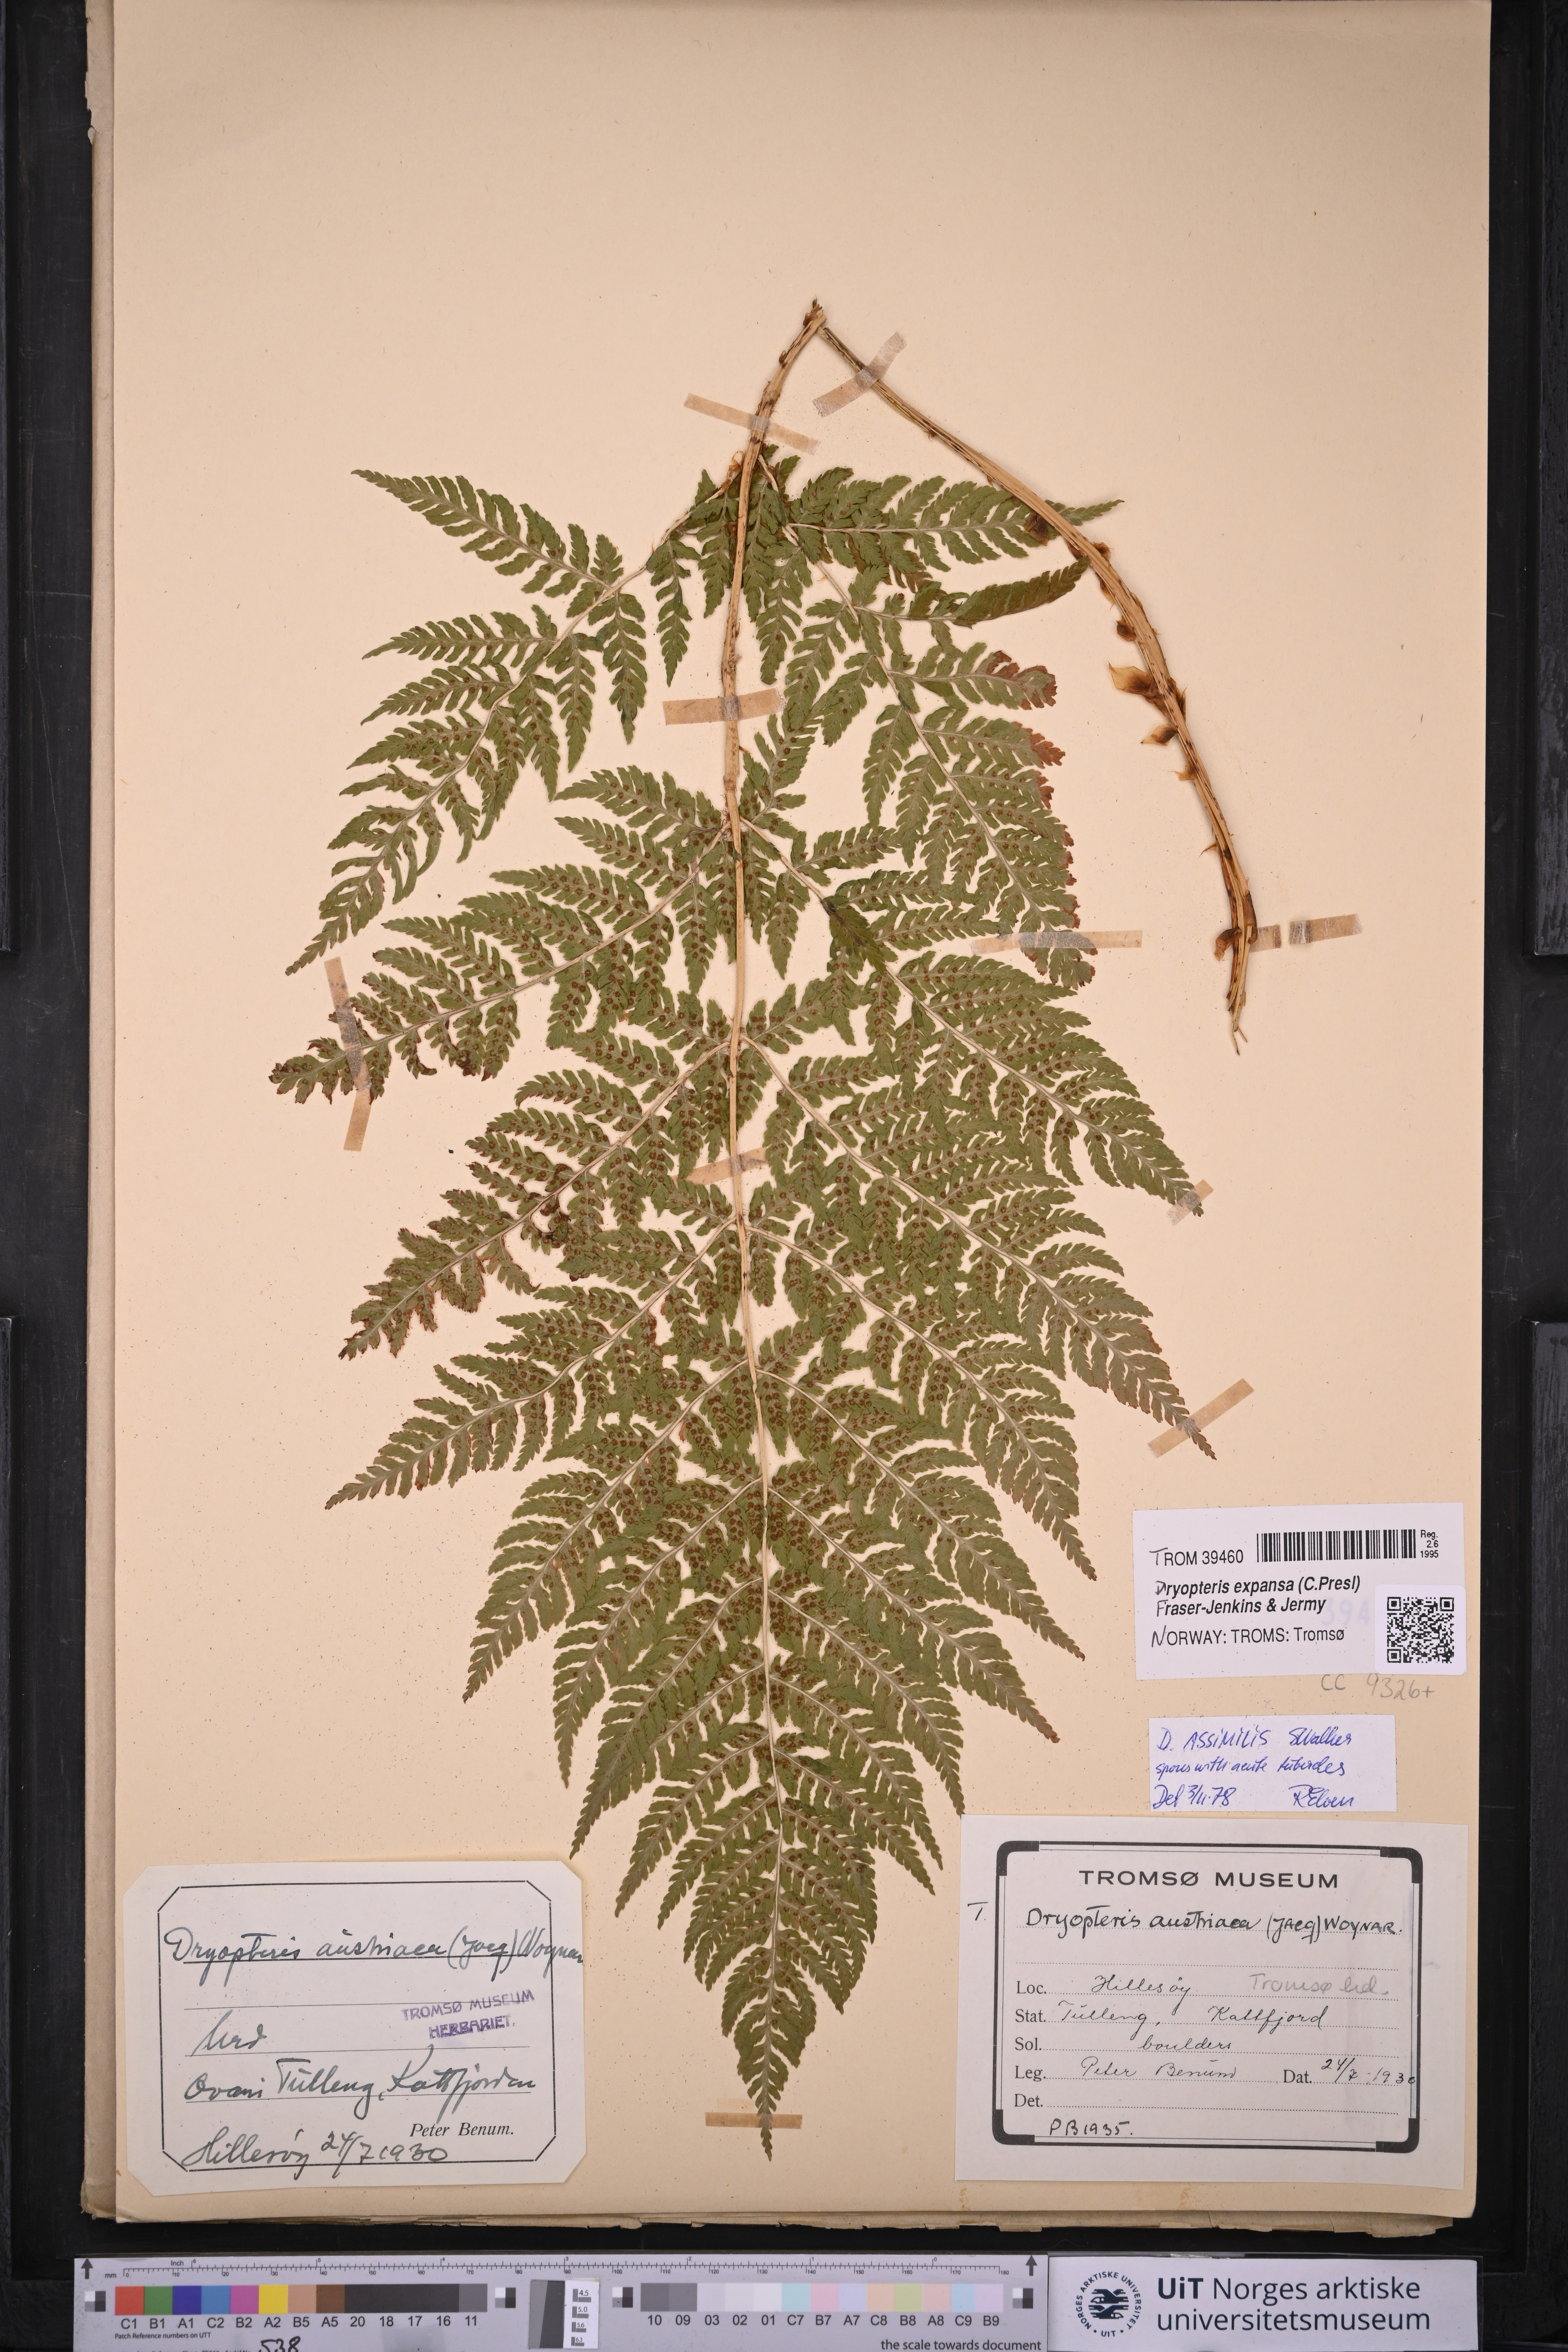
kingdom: Plantae
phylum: Tracheophyta
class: Polypodiopsida
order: Polypodiales
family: Dryopteridaceae
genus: Dryopteris
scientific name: Dryopteris expansa
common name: Northern buckler fern
